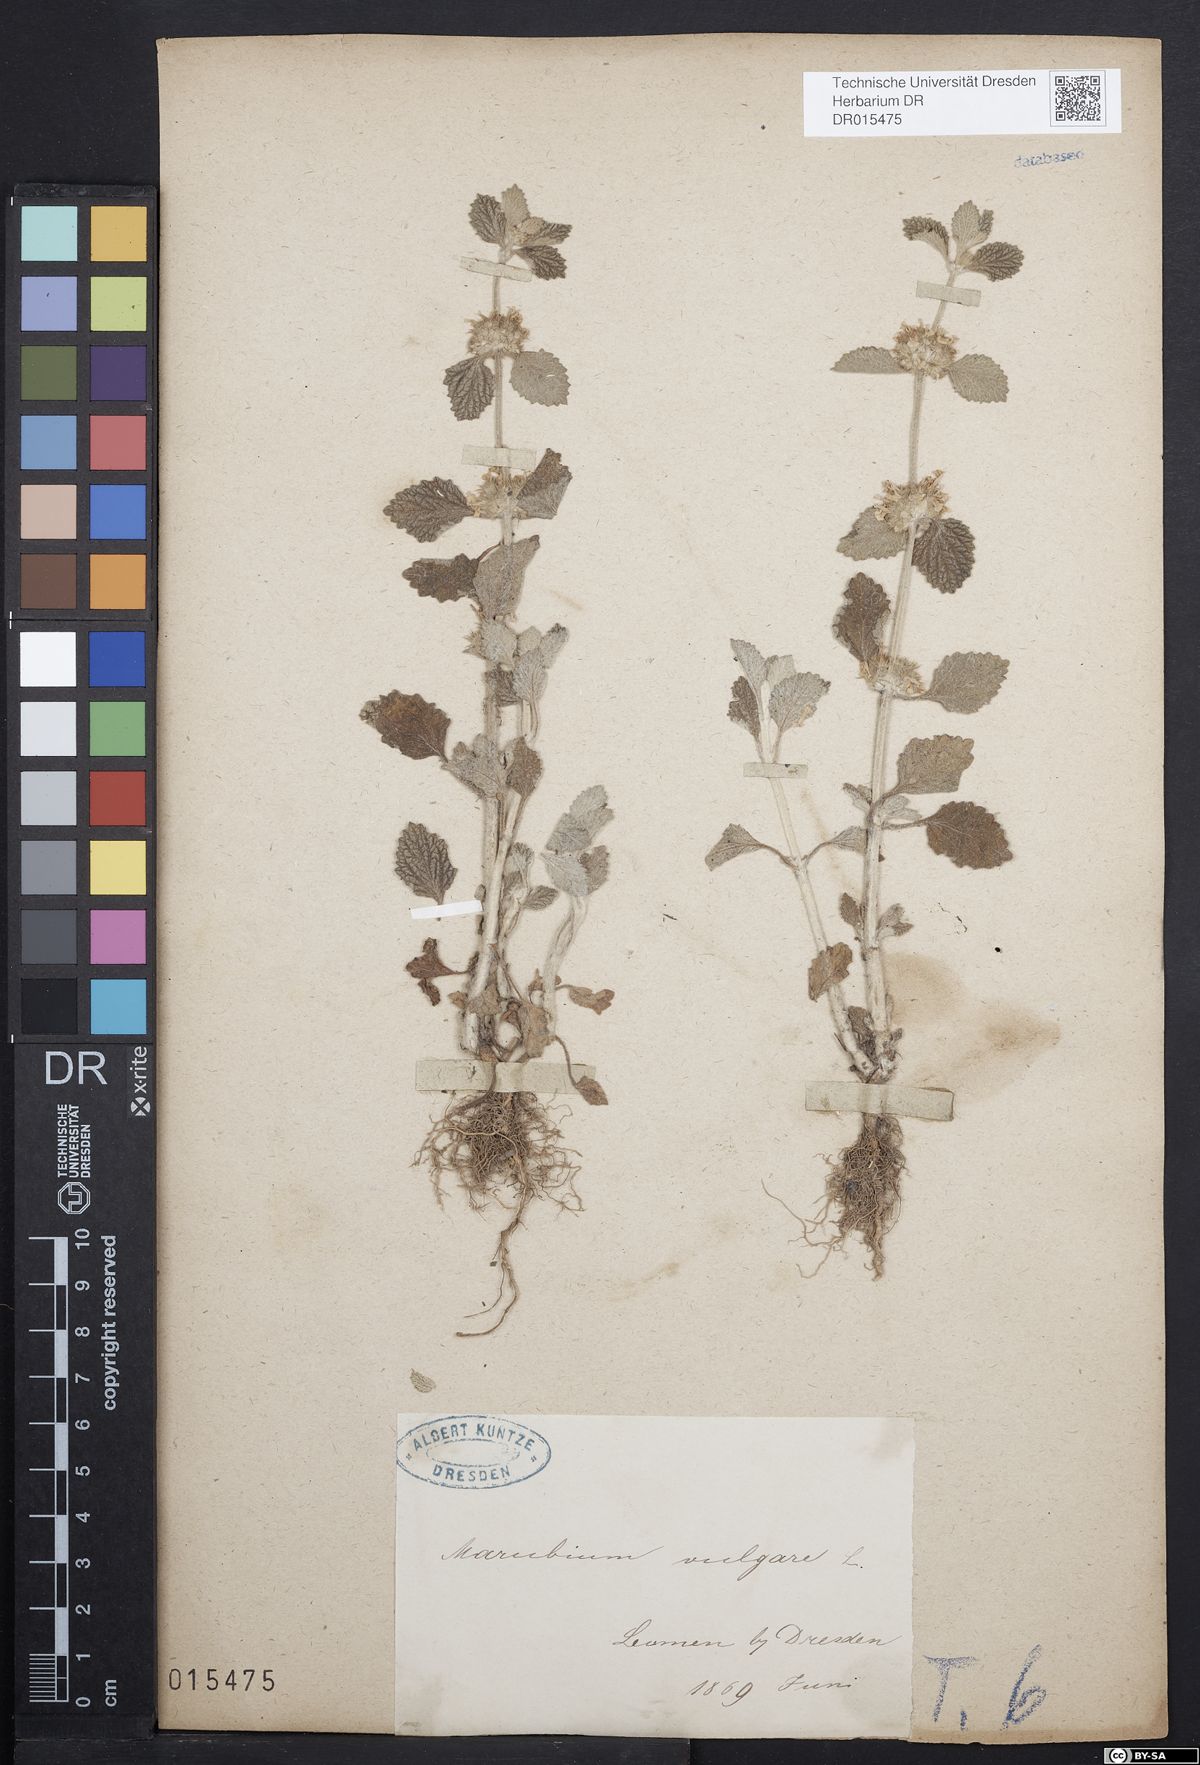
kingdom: Plantae
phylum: Tracheophyta
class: Magnoliopsida
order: Lamiales
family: Lamiaceae
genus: Marrubium
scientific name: Marrubium vulgare
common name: Horehound
